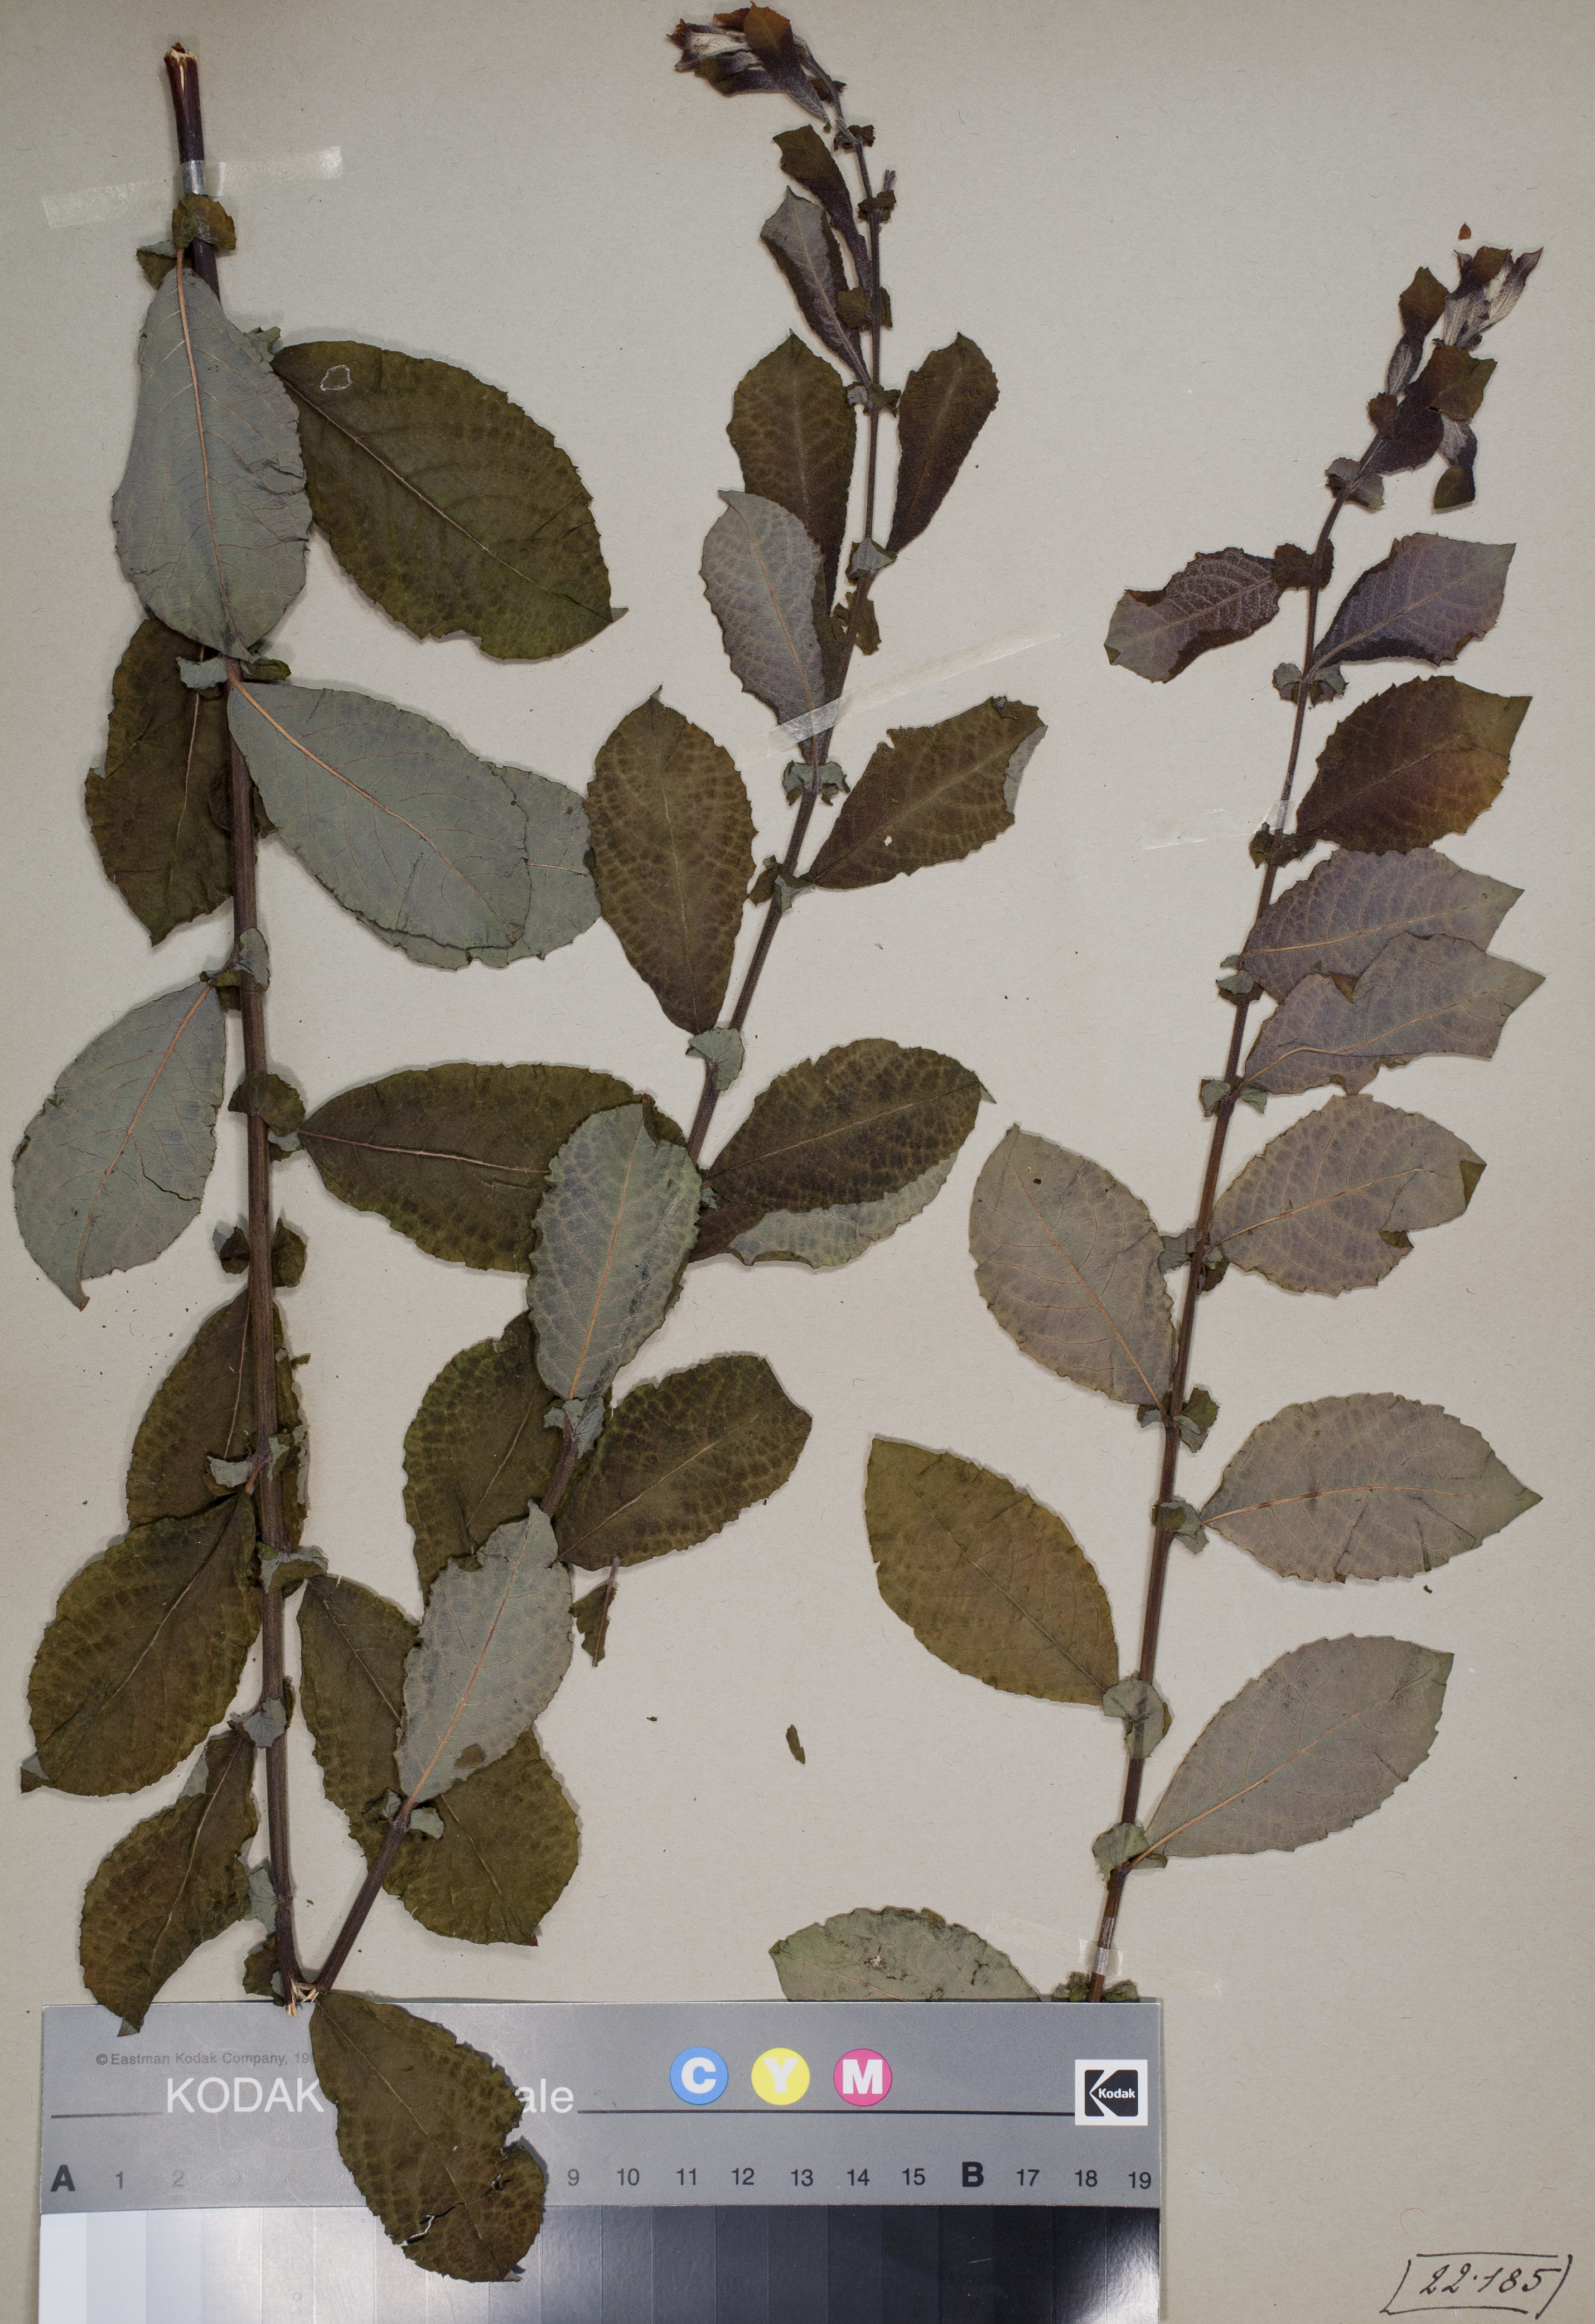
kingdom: Plantae
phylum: Tracheophyta
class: Magnoliopsida
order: Malpighiales
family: Salicaceae
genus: Salix
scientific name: Salix aurita
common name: Eared willow
